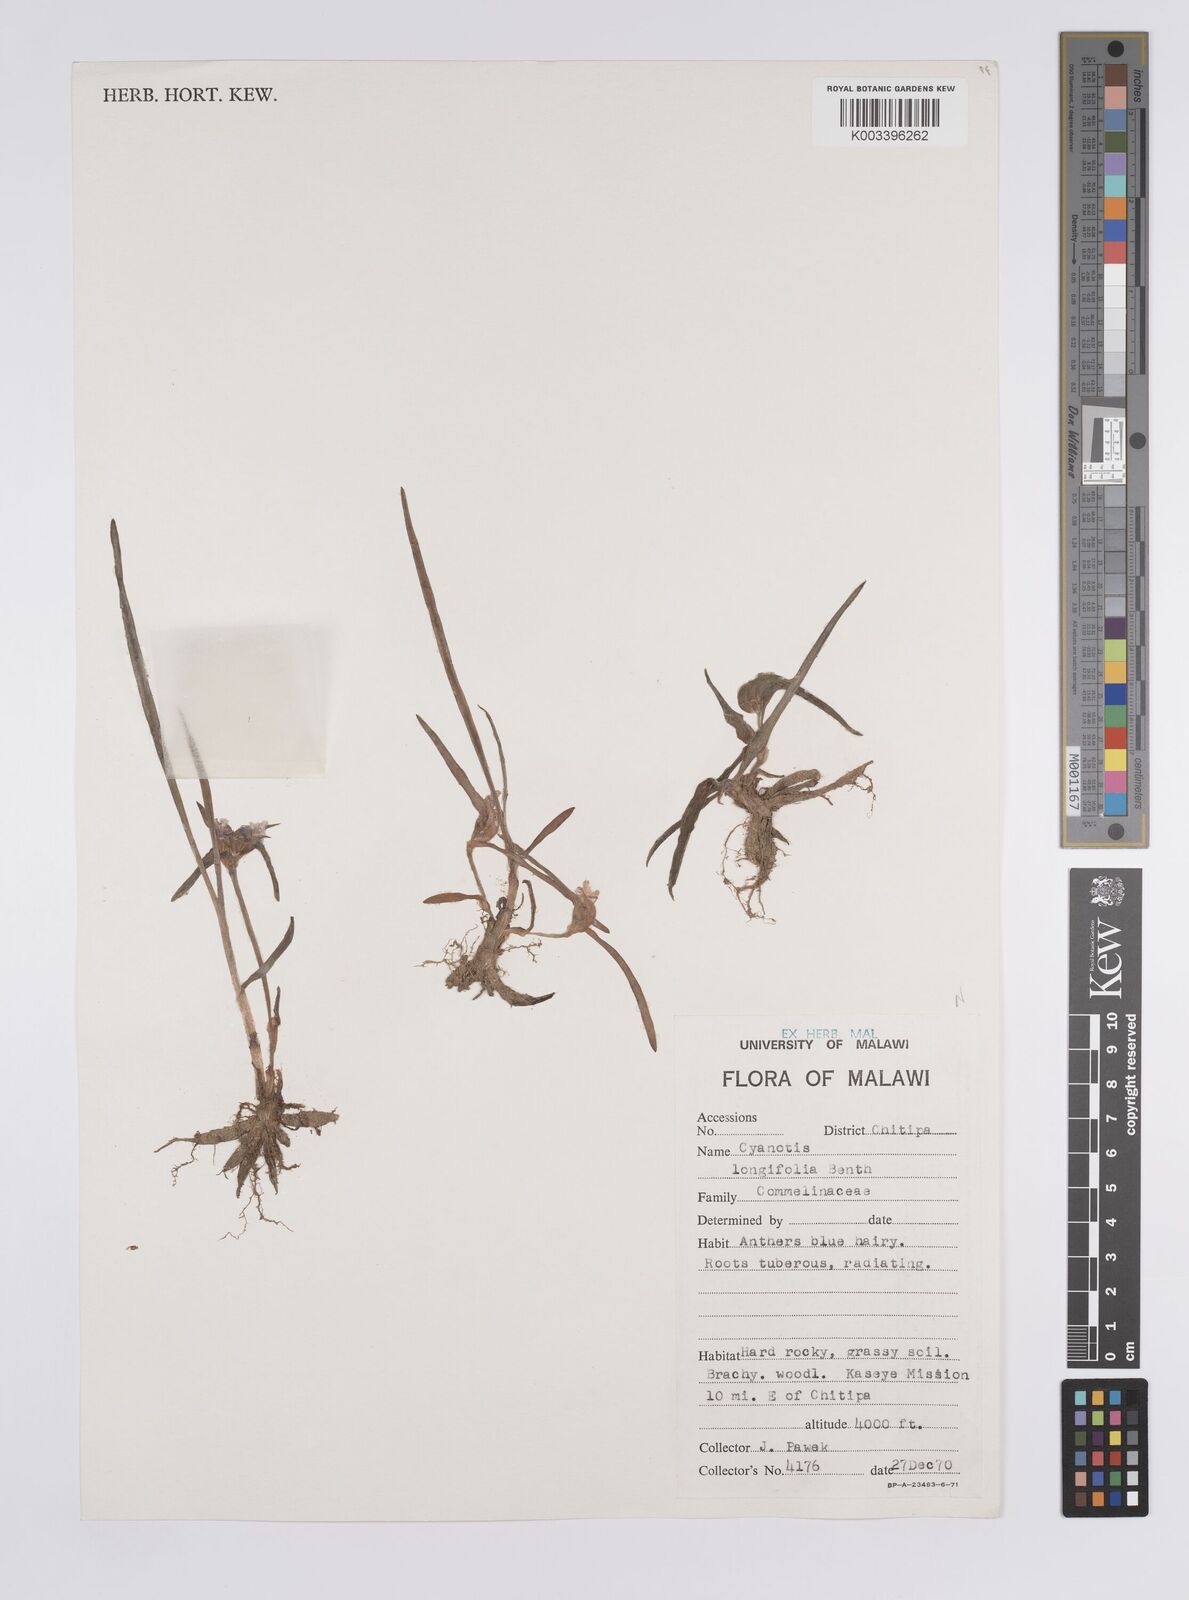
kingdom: Plantae
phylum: Tracheophyta
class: Liliopsida
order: Commelinales
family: Commelinaceae
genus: Cyanotis
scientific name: Cyanotis longifolia
